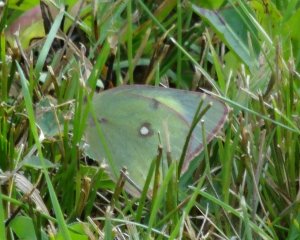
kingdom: Animalia
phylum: Arthropoda
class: Insecta
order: Lepidoptera
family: Pieridae
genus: Colias
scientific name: Colias philodice
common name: Clouded Sulphur
